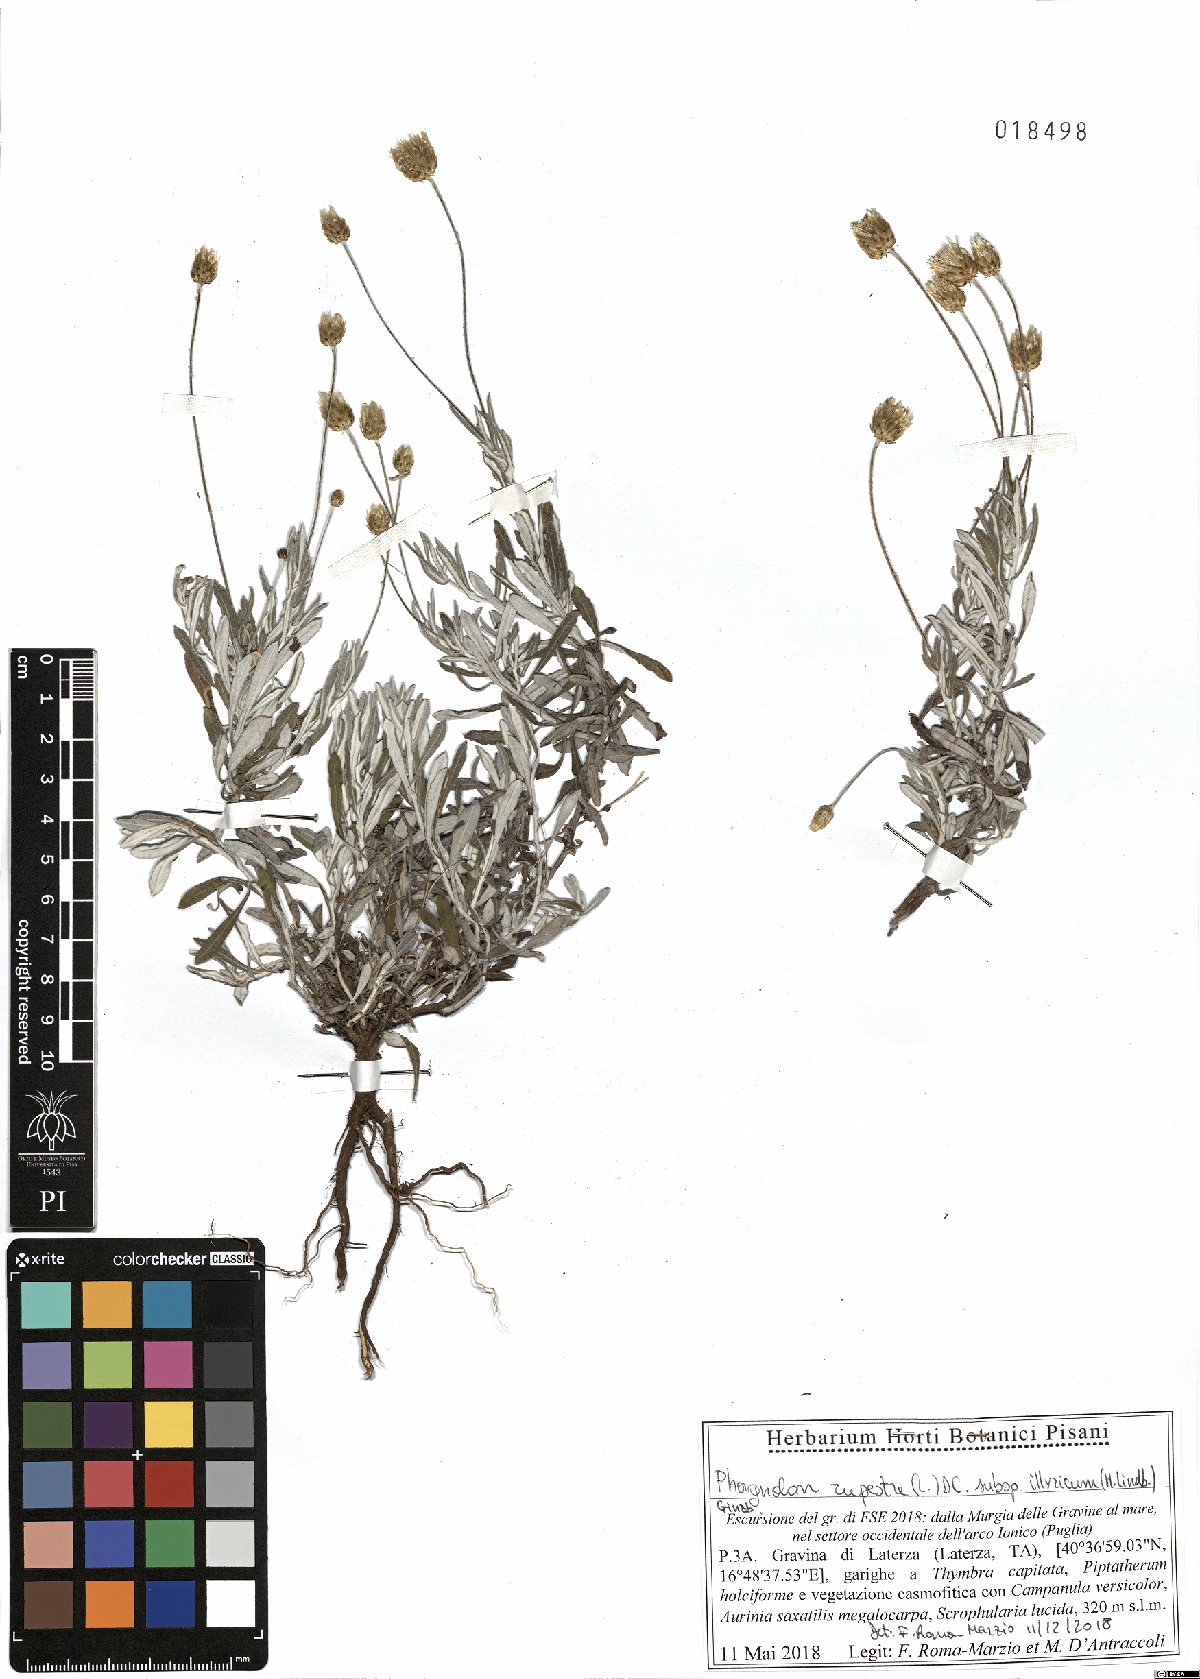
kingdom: Plantae
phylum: Tracheophyta
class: Magnoliopsida
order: Asterales
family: Asteraceae
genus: Phagnalon
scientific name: Phagnalon rupestre
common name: Rock phagnalon
